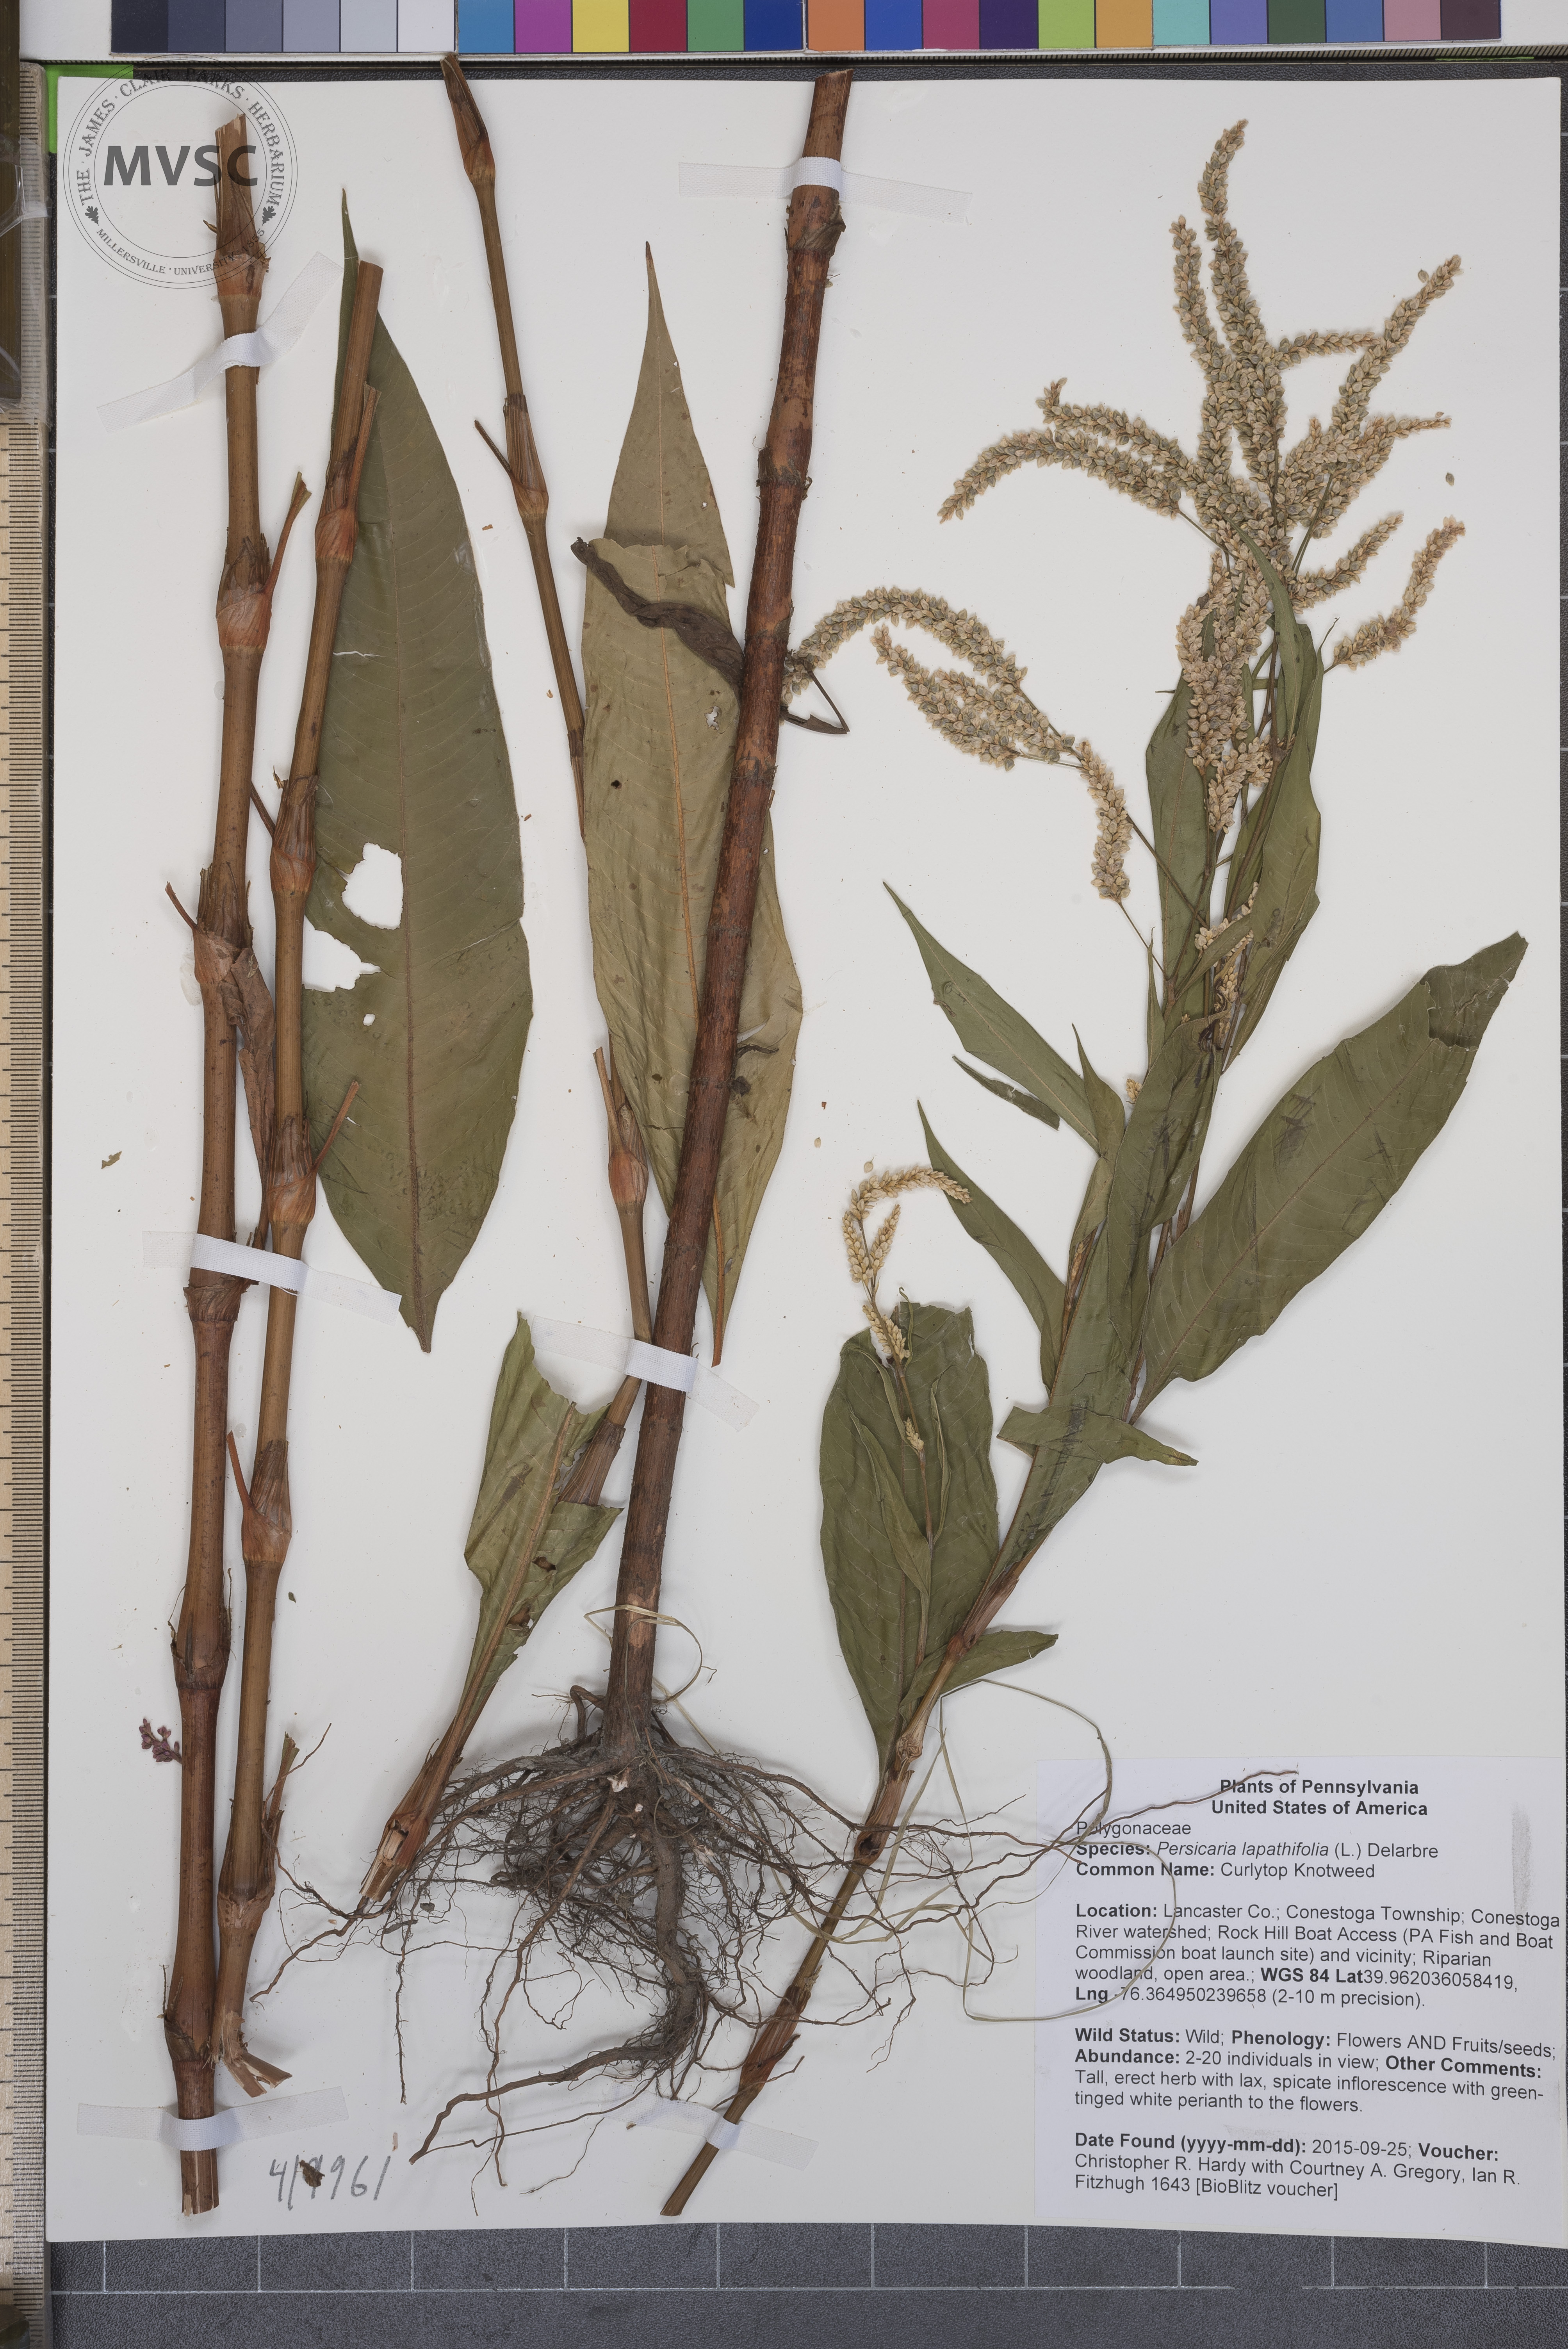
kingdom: Plantae
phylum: Tracheophyta
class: Magnoliopsida
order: Caryophyllales
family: Polygonaceae
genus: Persicaria
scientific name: Persicaria lapathifolia
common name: Curlytop Knotweed
